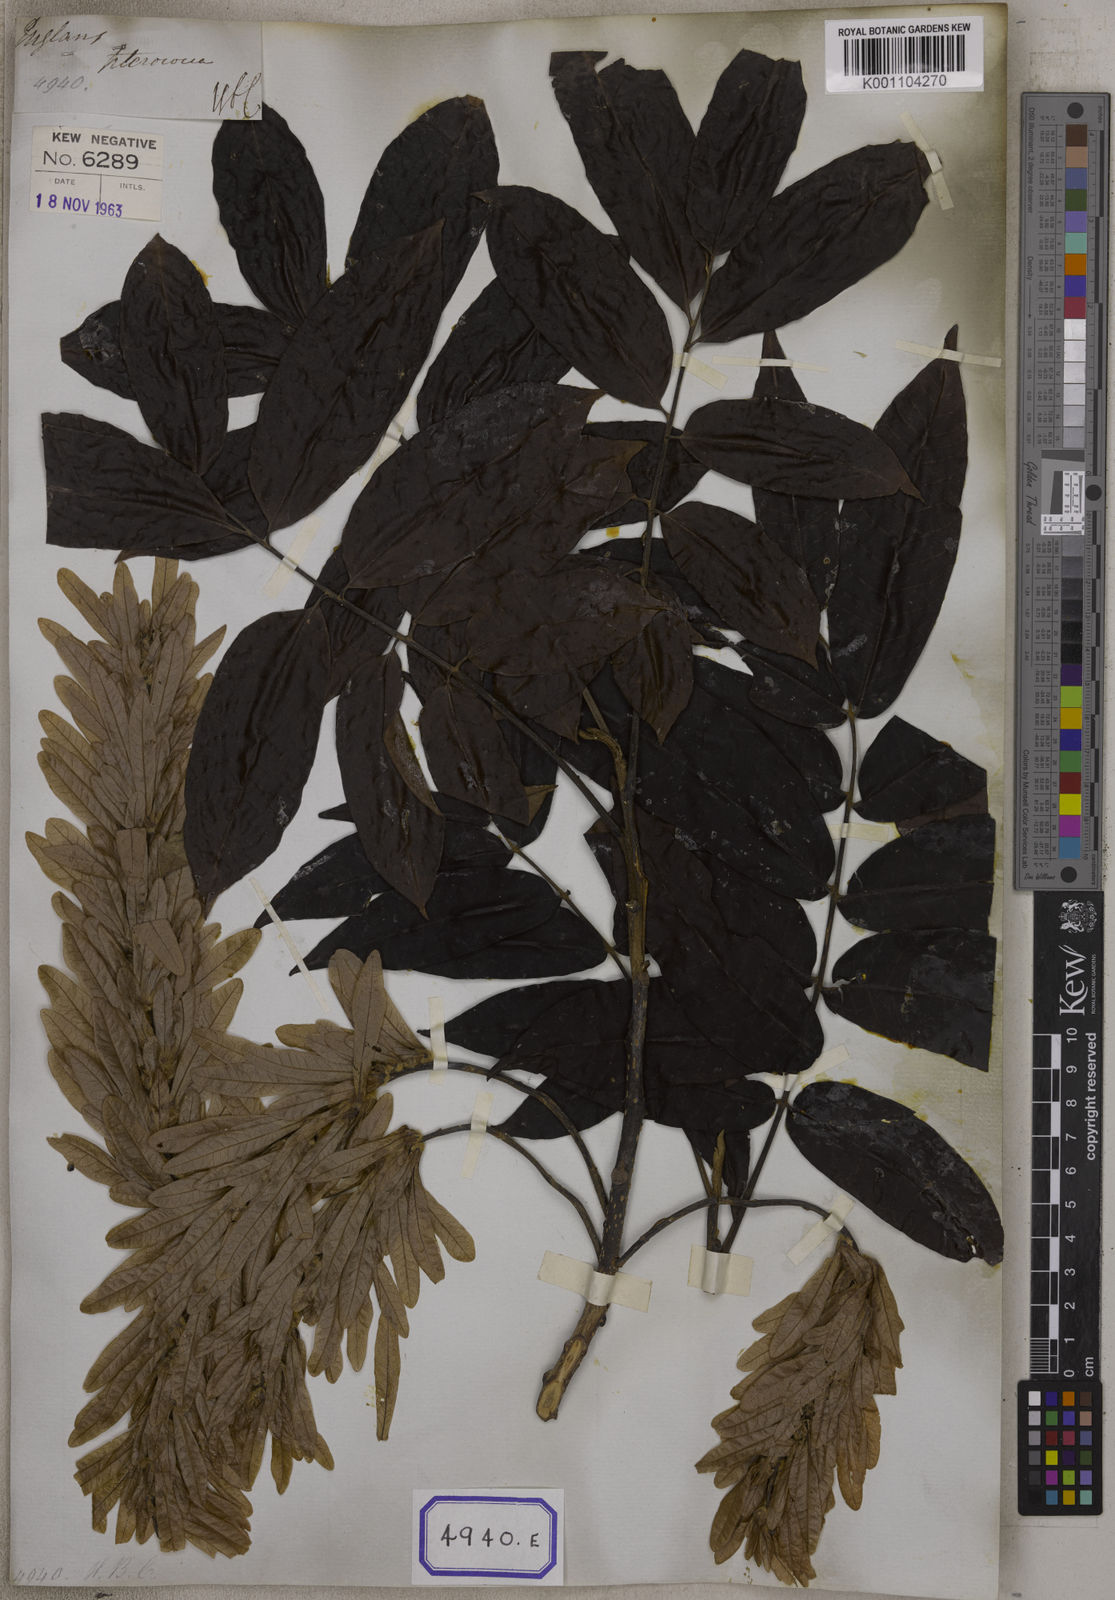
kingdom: Plantae
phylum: Tracheophyta
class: Magnoliopsida
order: Fagales
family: Juglandaceae
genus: Engelhardia
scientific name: Engelhardia spicata
